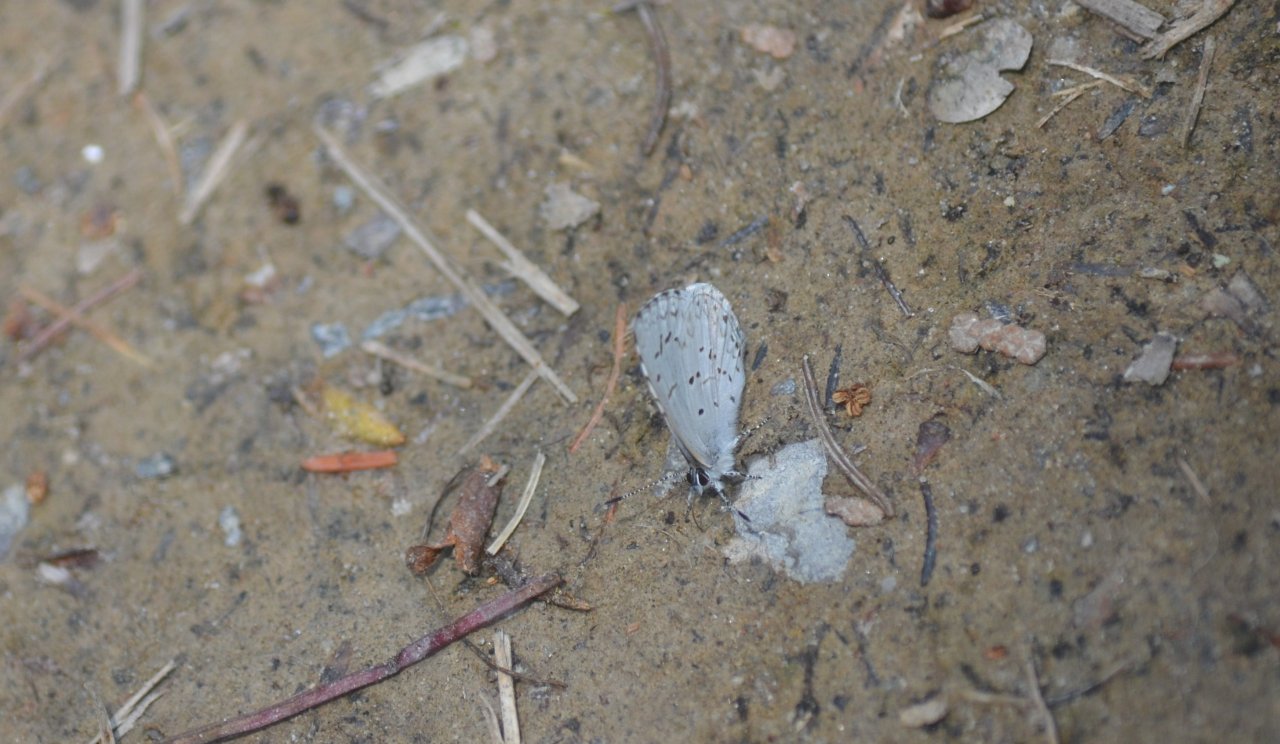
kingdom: Animalia
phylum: Arthropoda
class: Insecta
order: Lepidoptera
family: Lycaenidae
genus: Celastrina
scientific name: Celastrina lucia
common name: Northern Spring Azure
